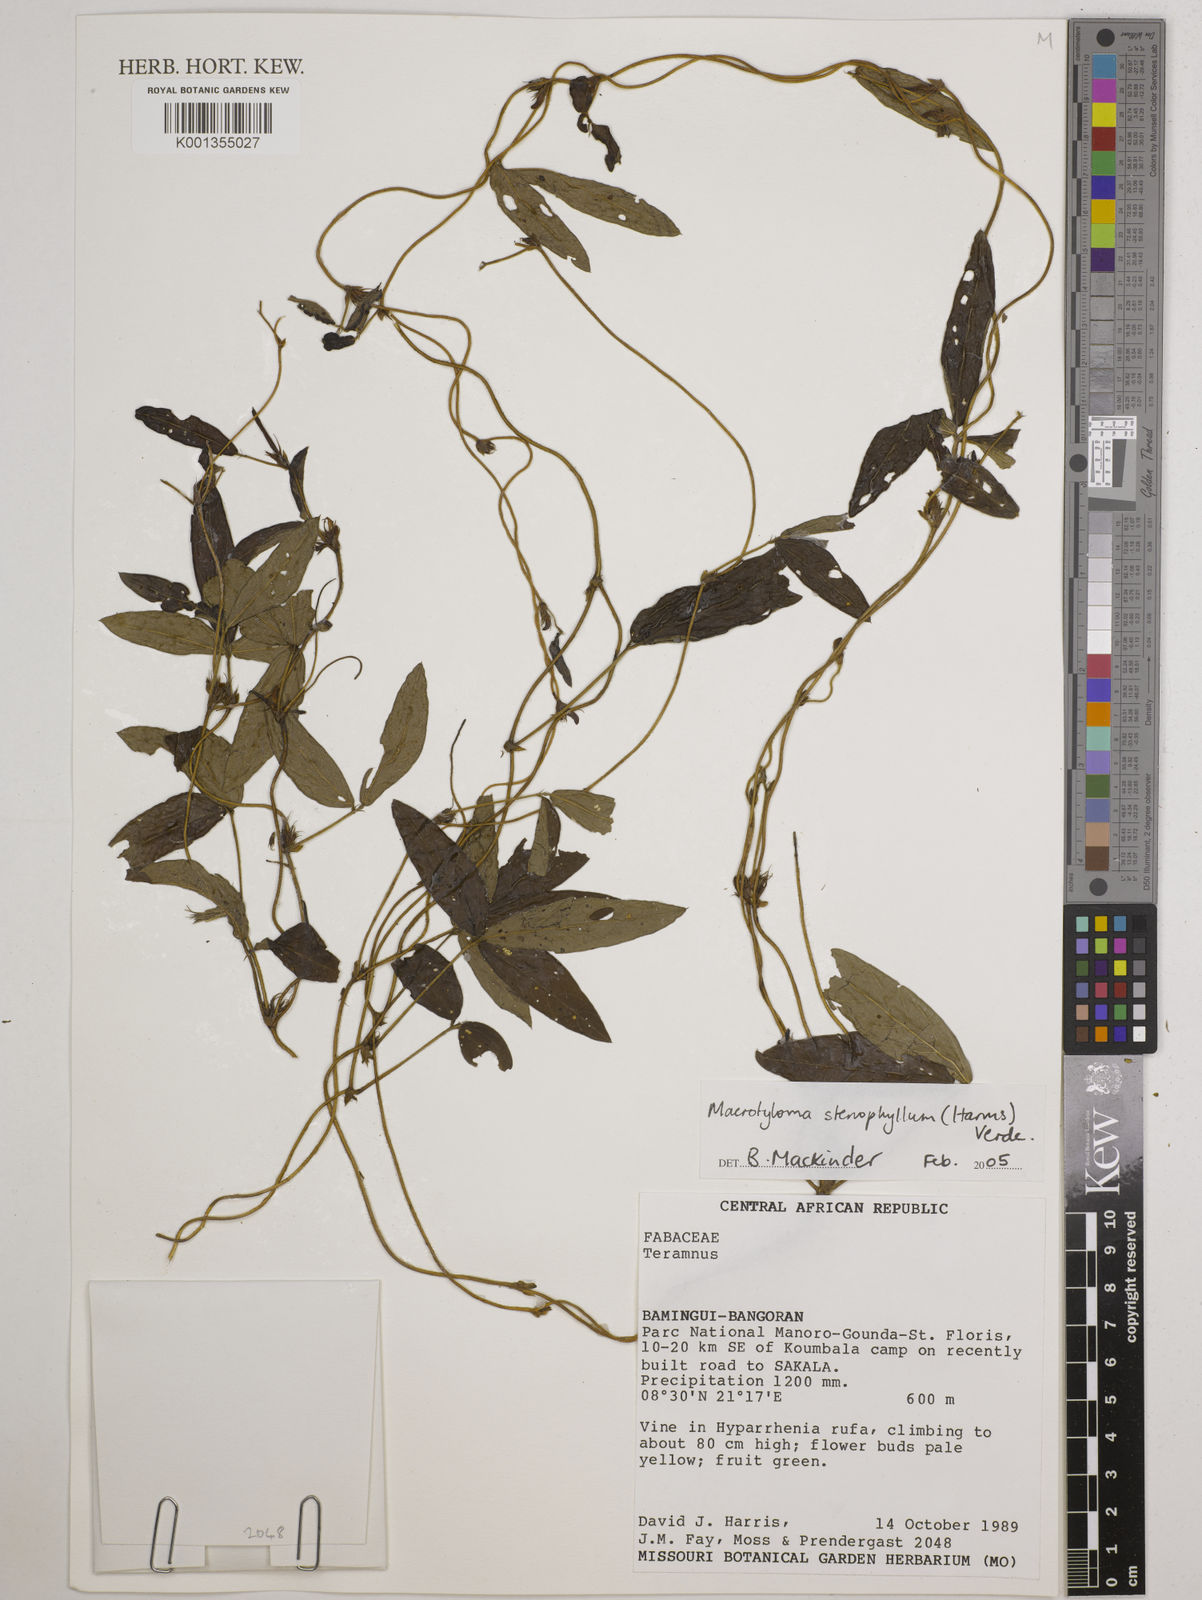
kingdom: Plantae
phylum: Tracheophyta
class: Magnoliopsida
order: Fabales
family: Fabaceae
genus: Macrotyloma
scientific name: Macrotyloma stenophyllum
